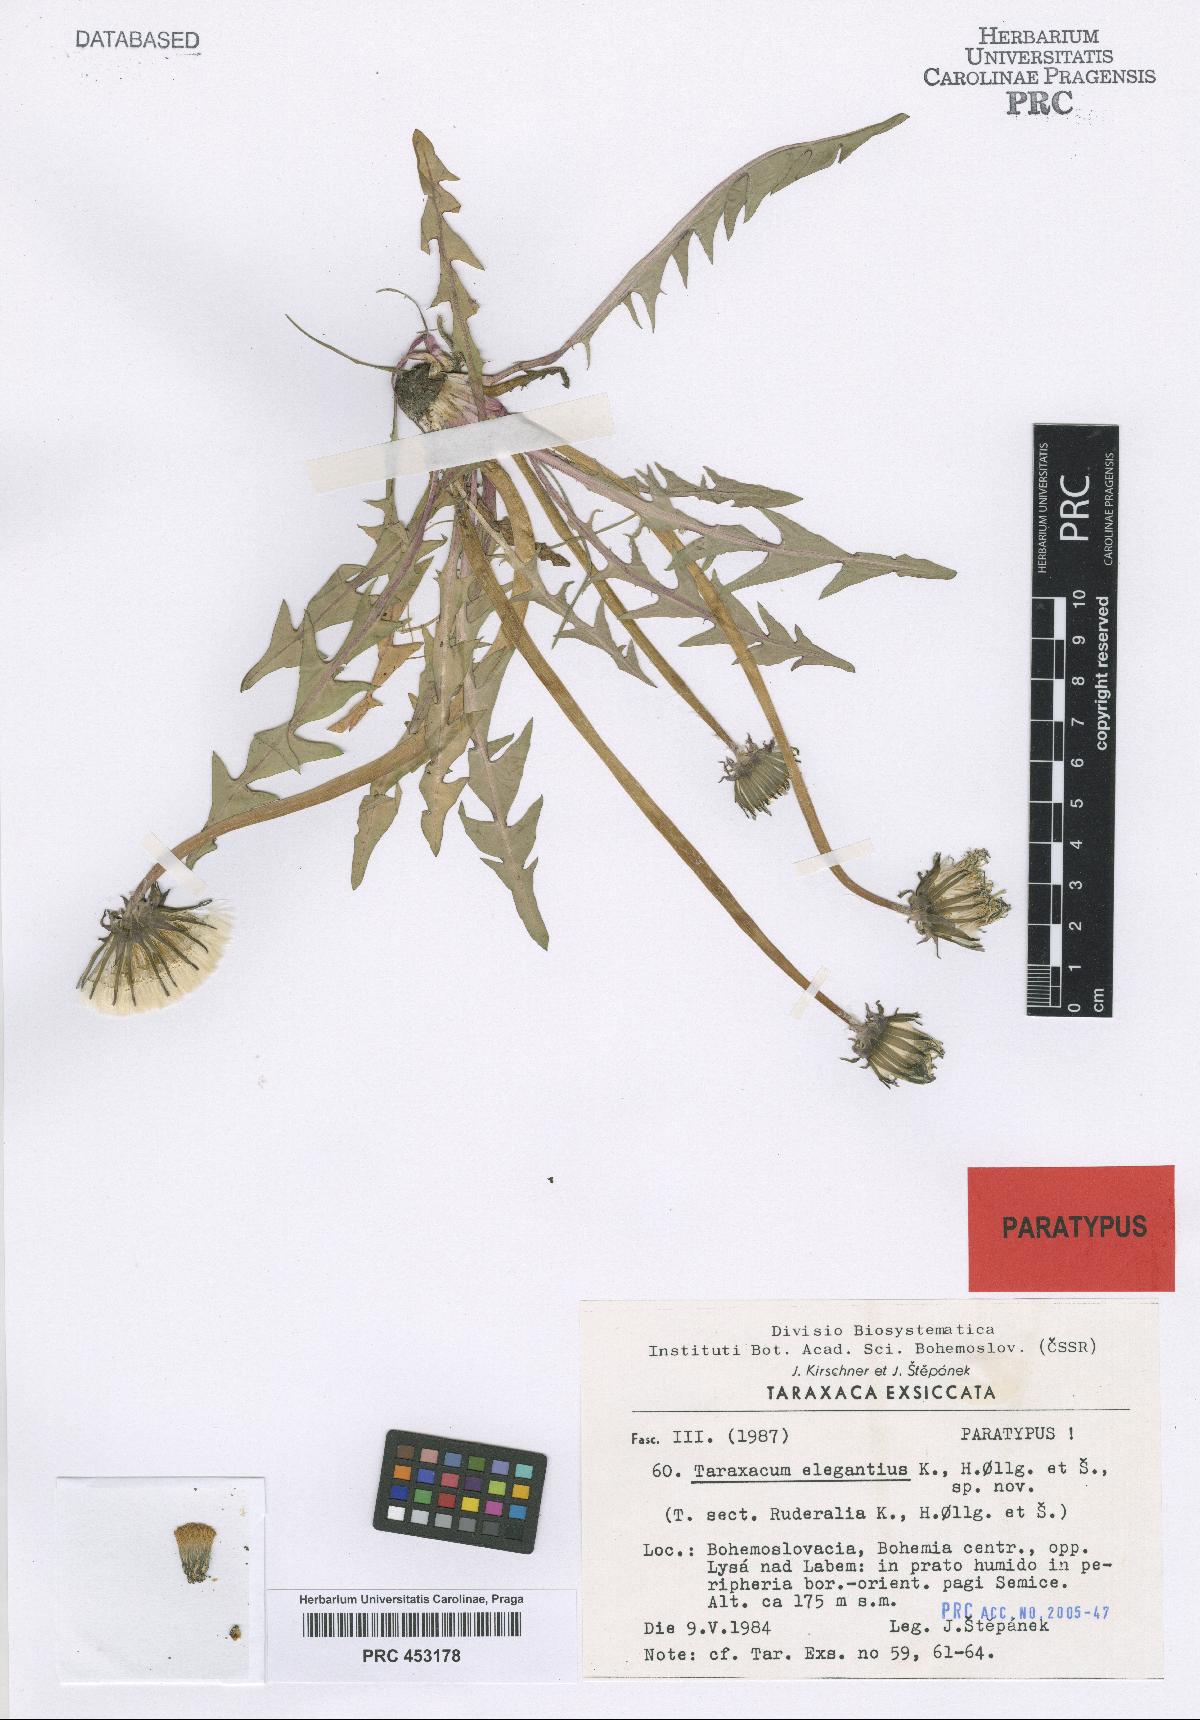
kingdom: Plantae
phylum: Tracheophyta
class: Magnoliopsida
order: Asterales
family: Asteraceae
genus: Taraxacum
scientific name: Taraxacum elegantius
